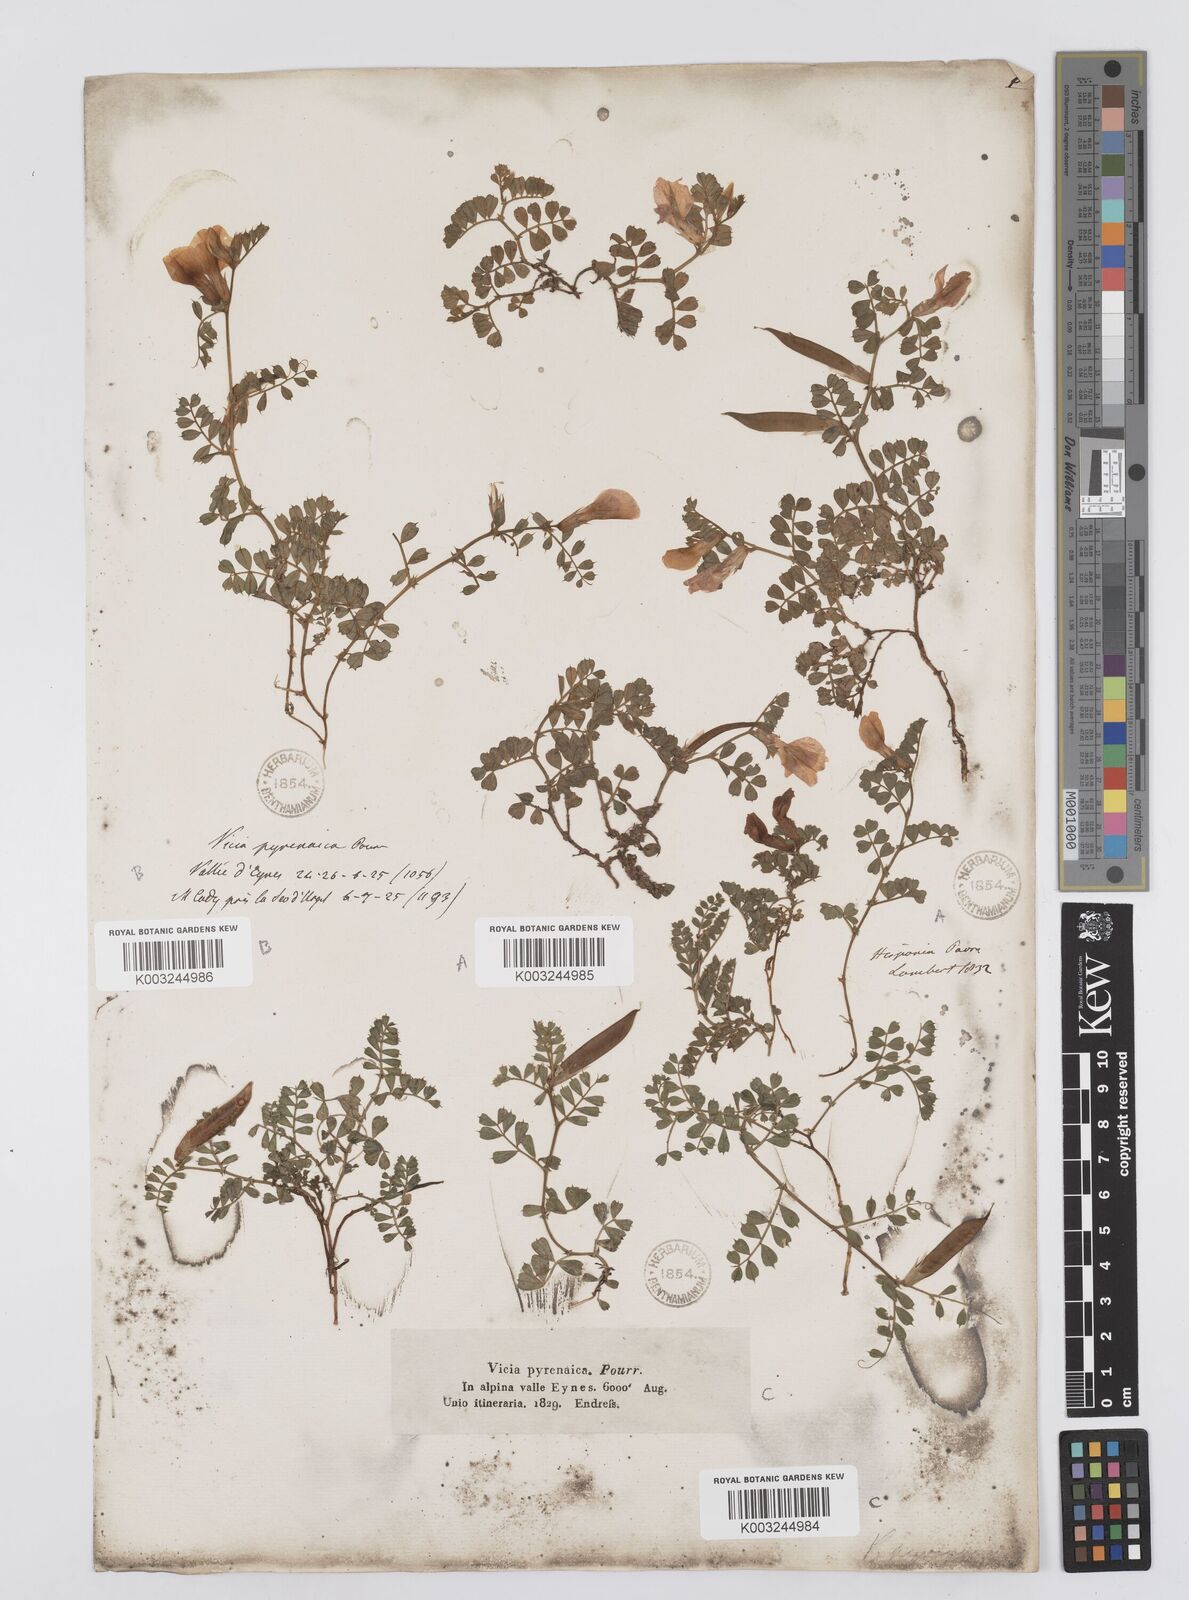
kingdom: Plantae
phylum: Tracheophyta
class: Magnoliopsida
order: Fabales
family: Fabaceae
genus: Vicia
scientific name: Vicia pyrenaica
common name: Pyrenean vetch
